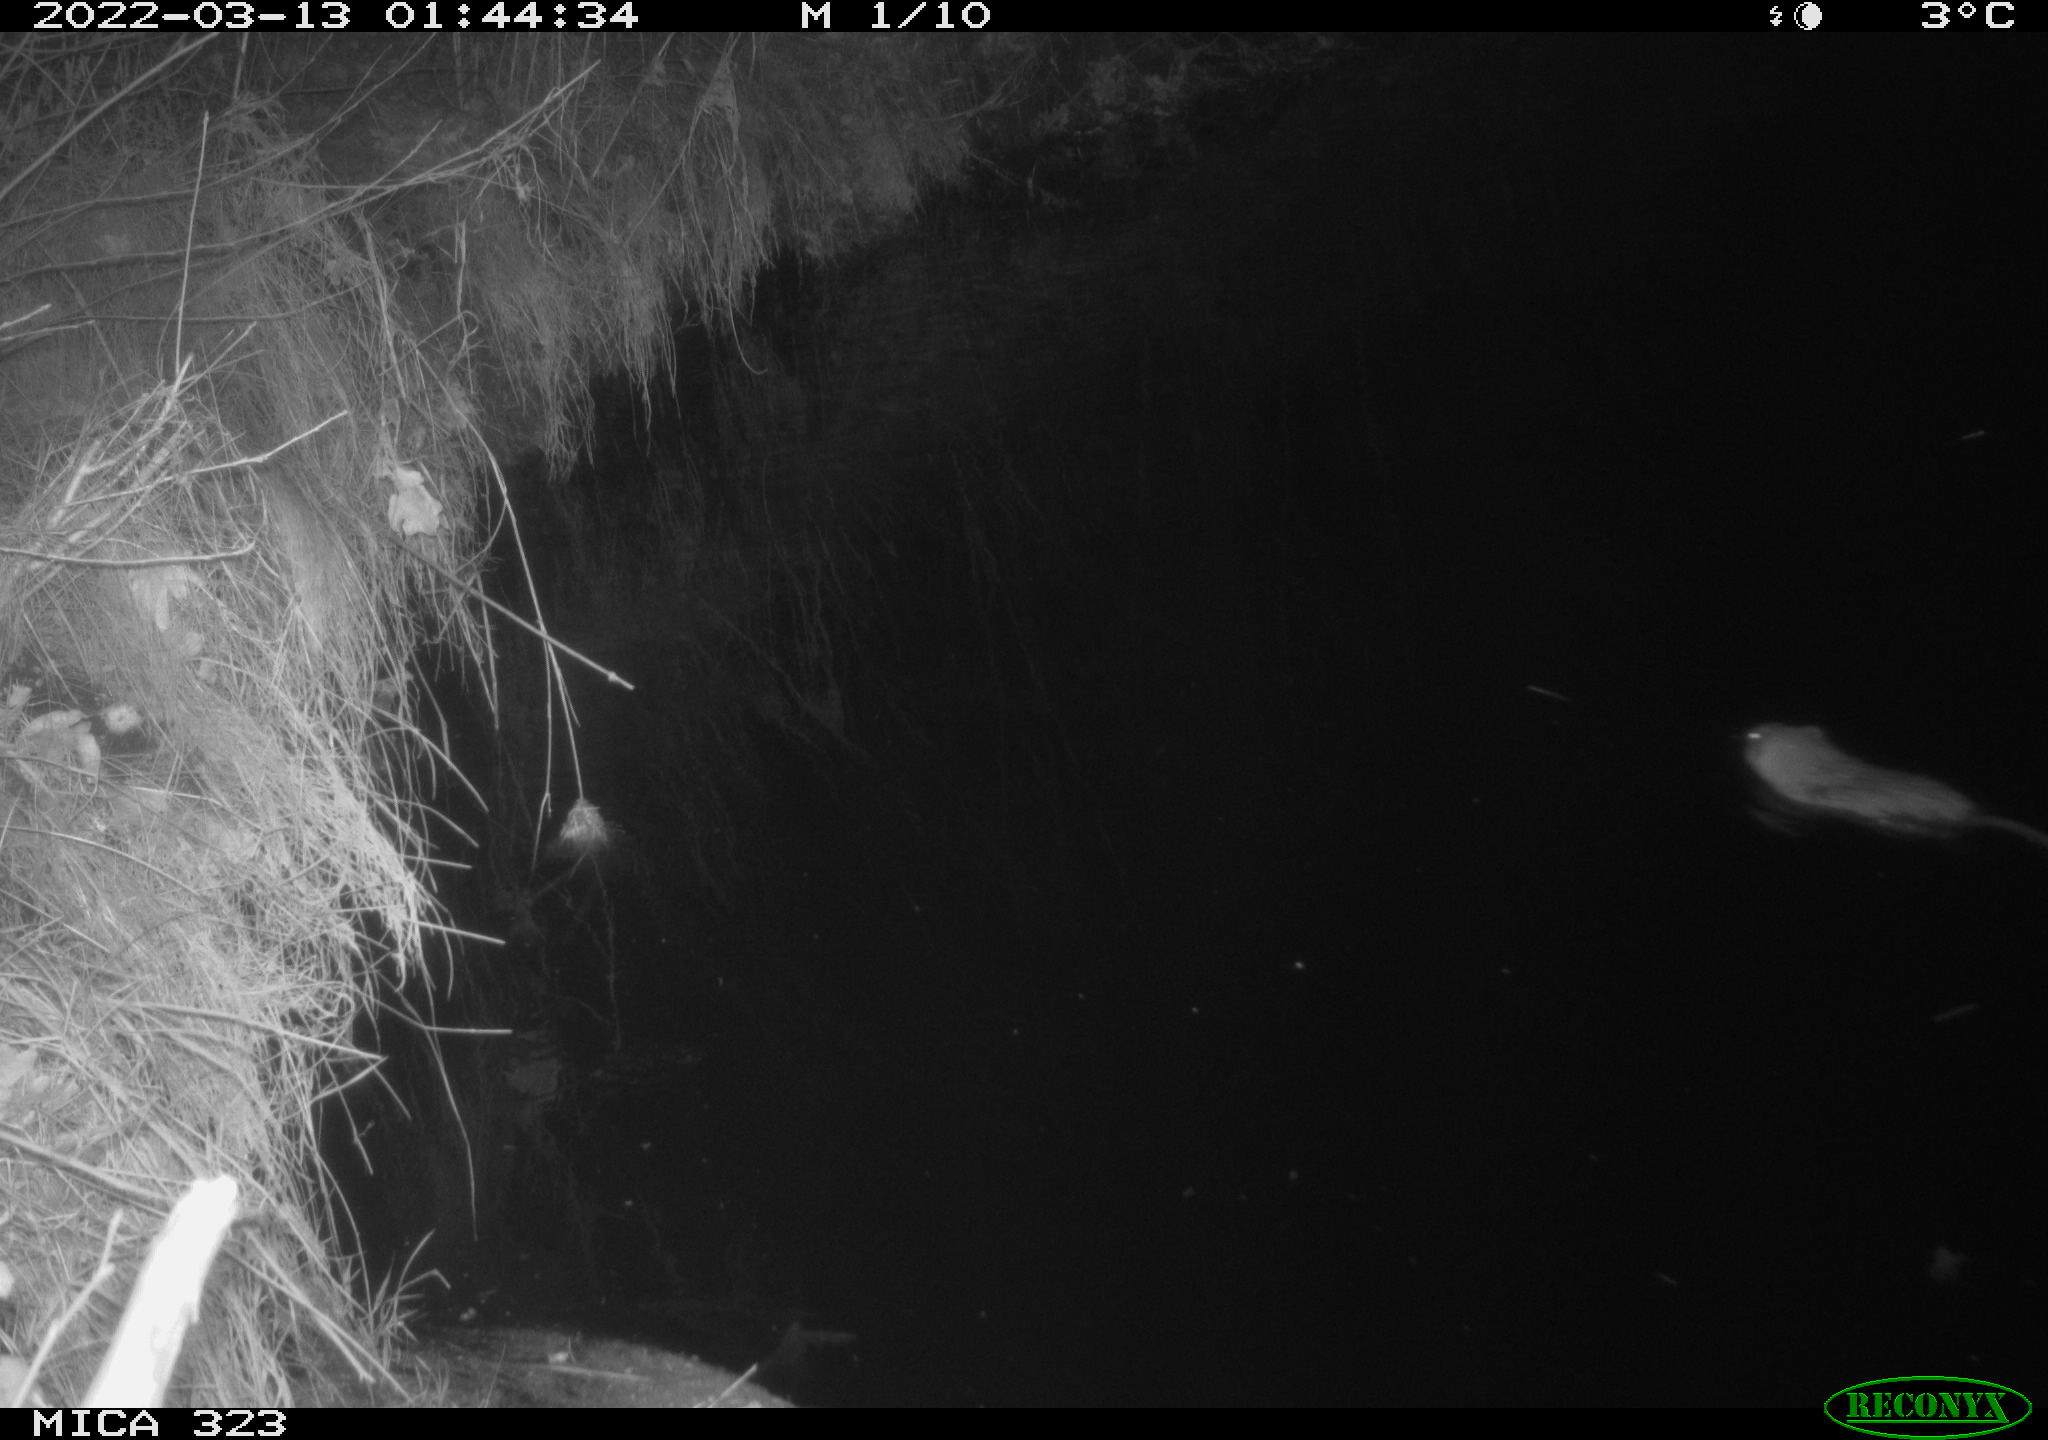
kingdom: Animalia
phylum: Chordata
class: Mammalia
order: Rodentia
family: Cricetidae
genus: Ondatra
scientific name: Ondatra zibethicus
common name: Muskrat
